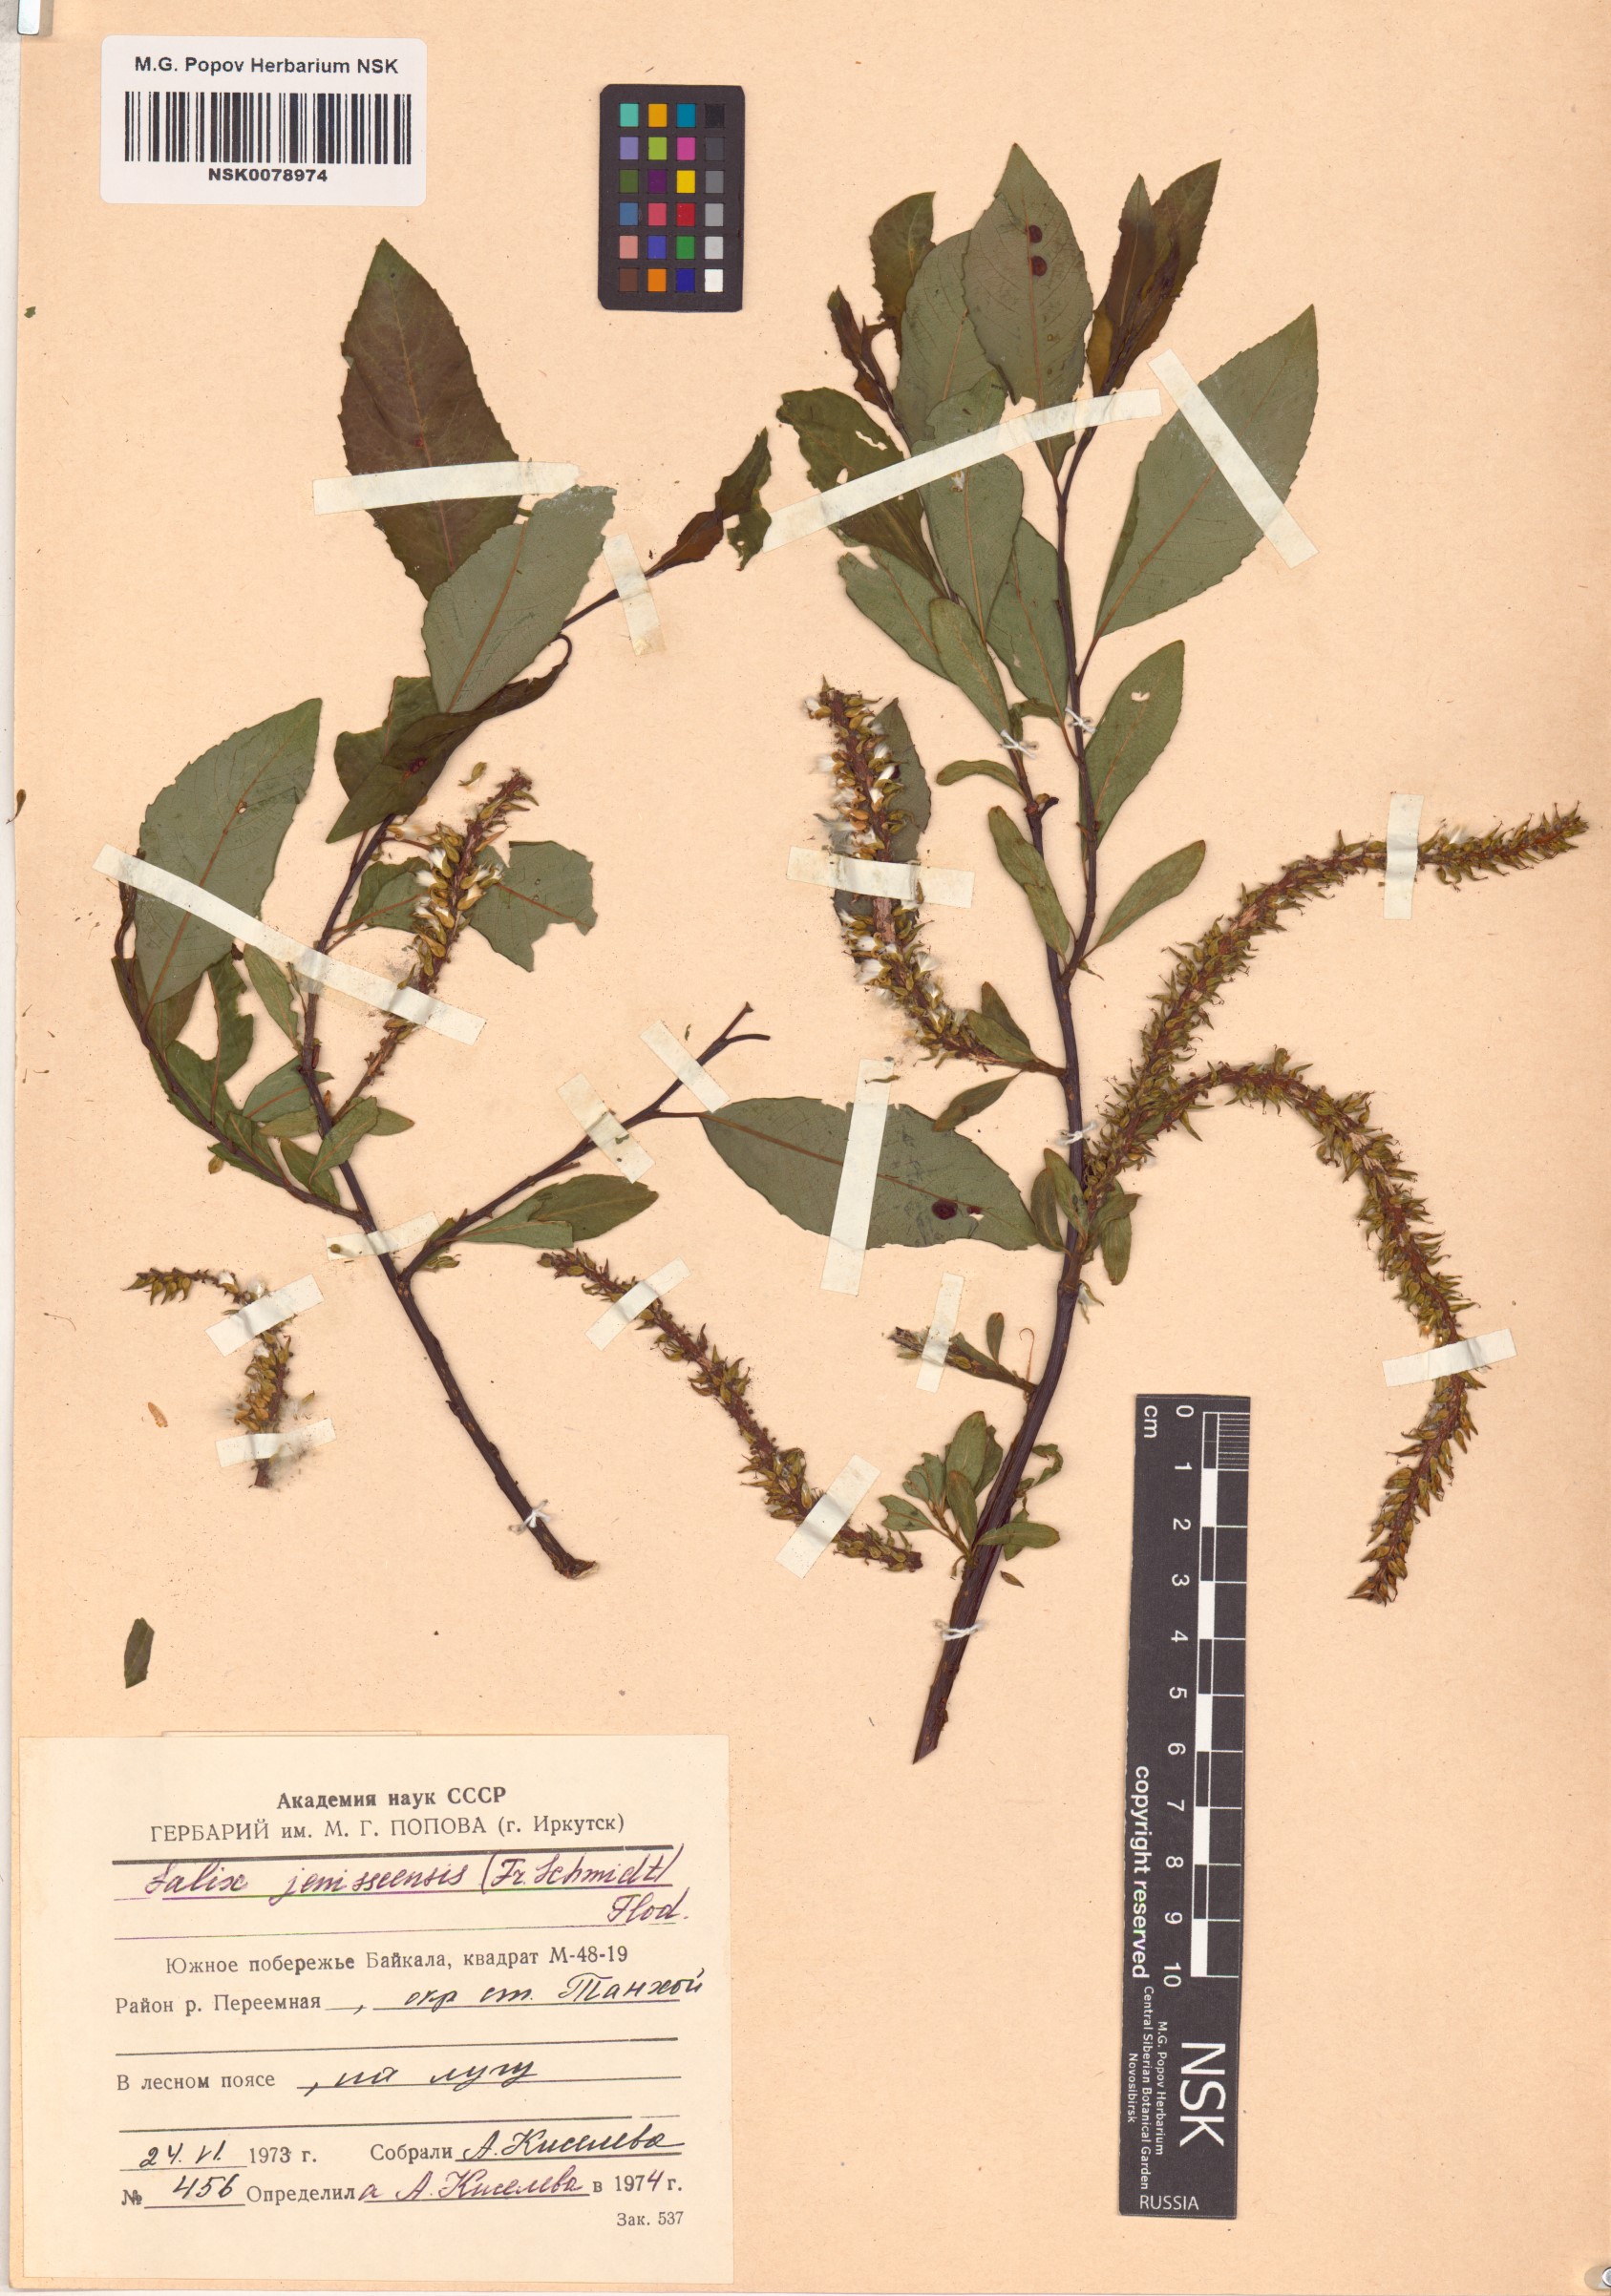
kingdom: Plantae
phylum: Tracheophyta
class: Magnoliopsida
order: Malpighiales
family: Salicaceae
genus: Salix
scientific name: Salix jenisseensis
